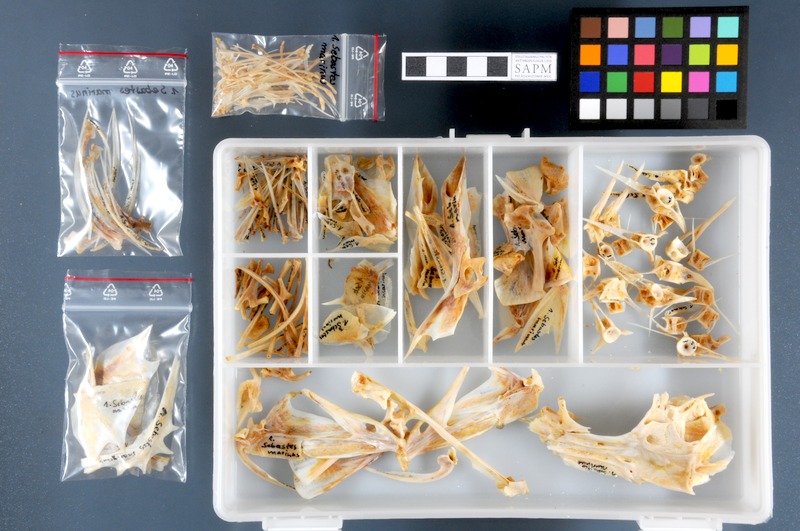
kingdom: Animalia
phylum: Chordata
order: Scorpaeniformes
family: Sebastidae
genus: Sebastes
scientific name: Sebastes norvegicus
